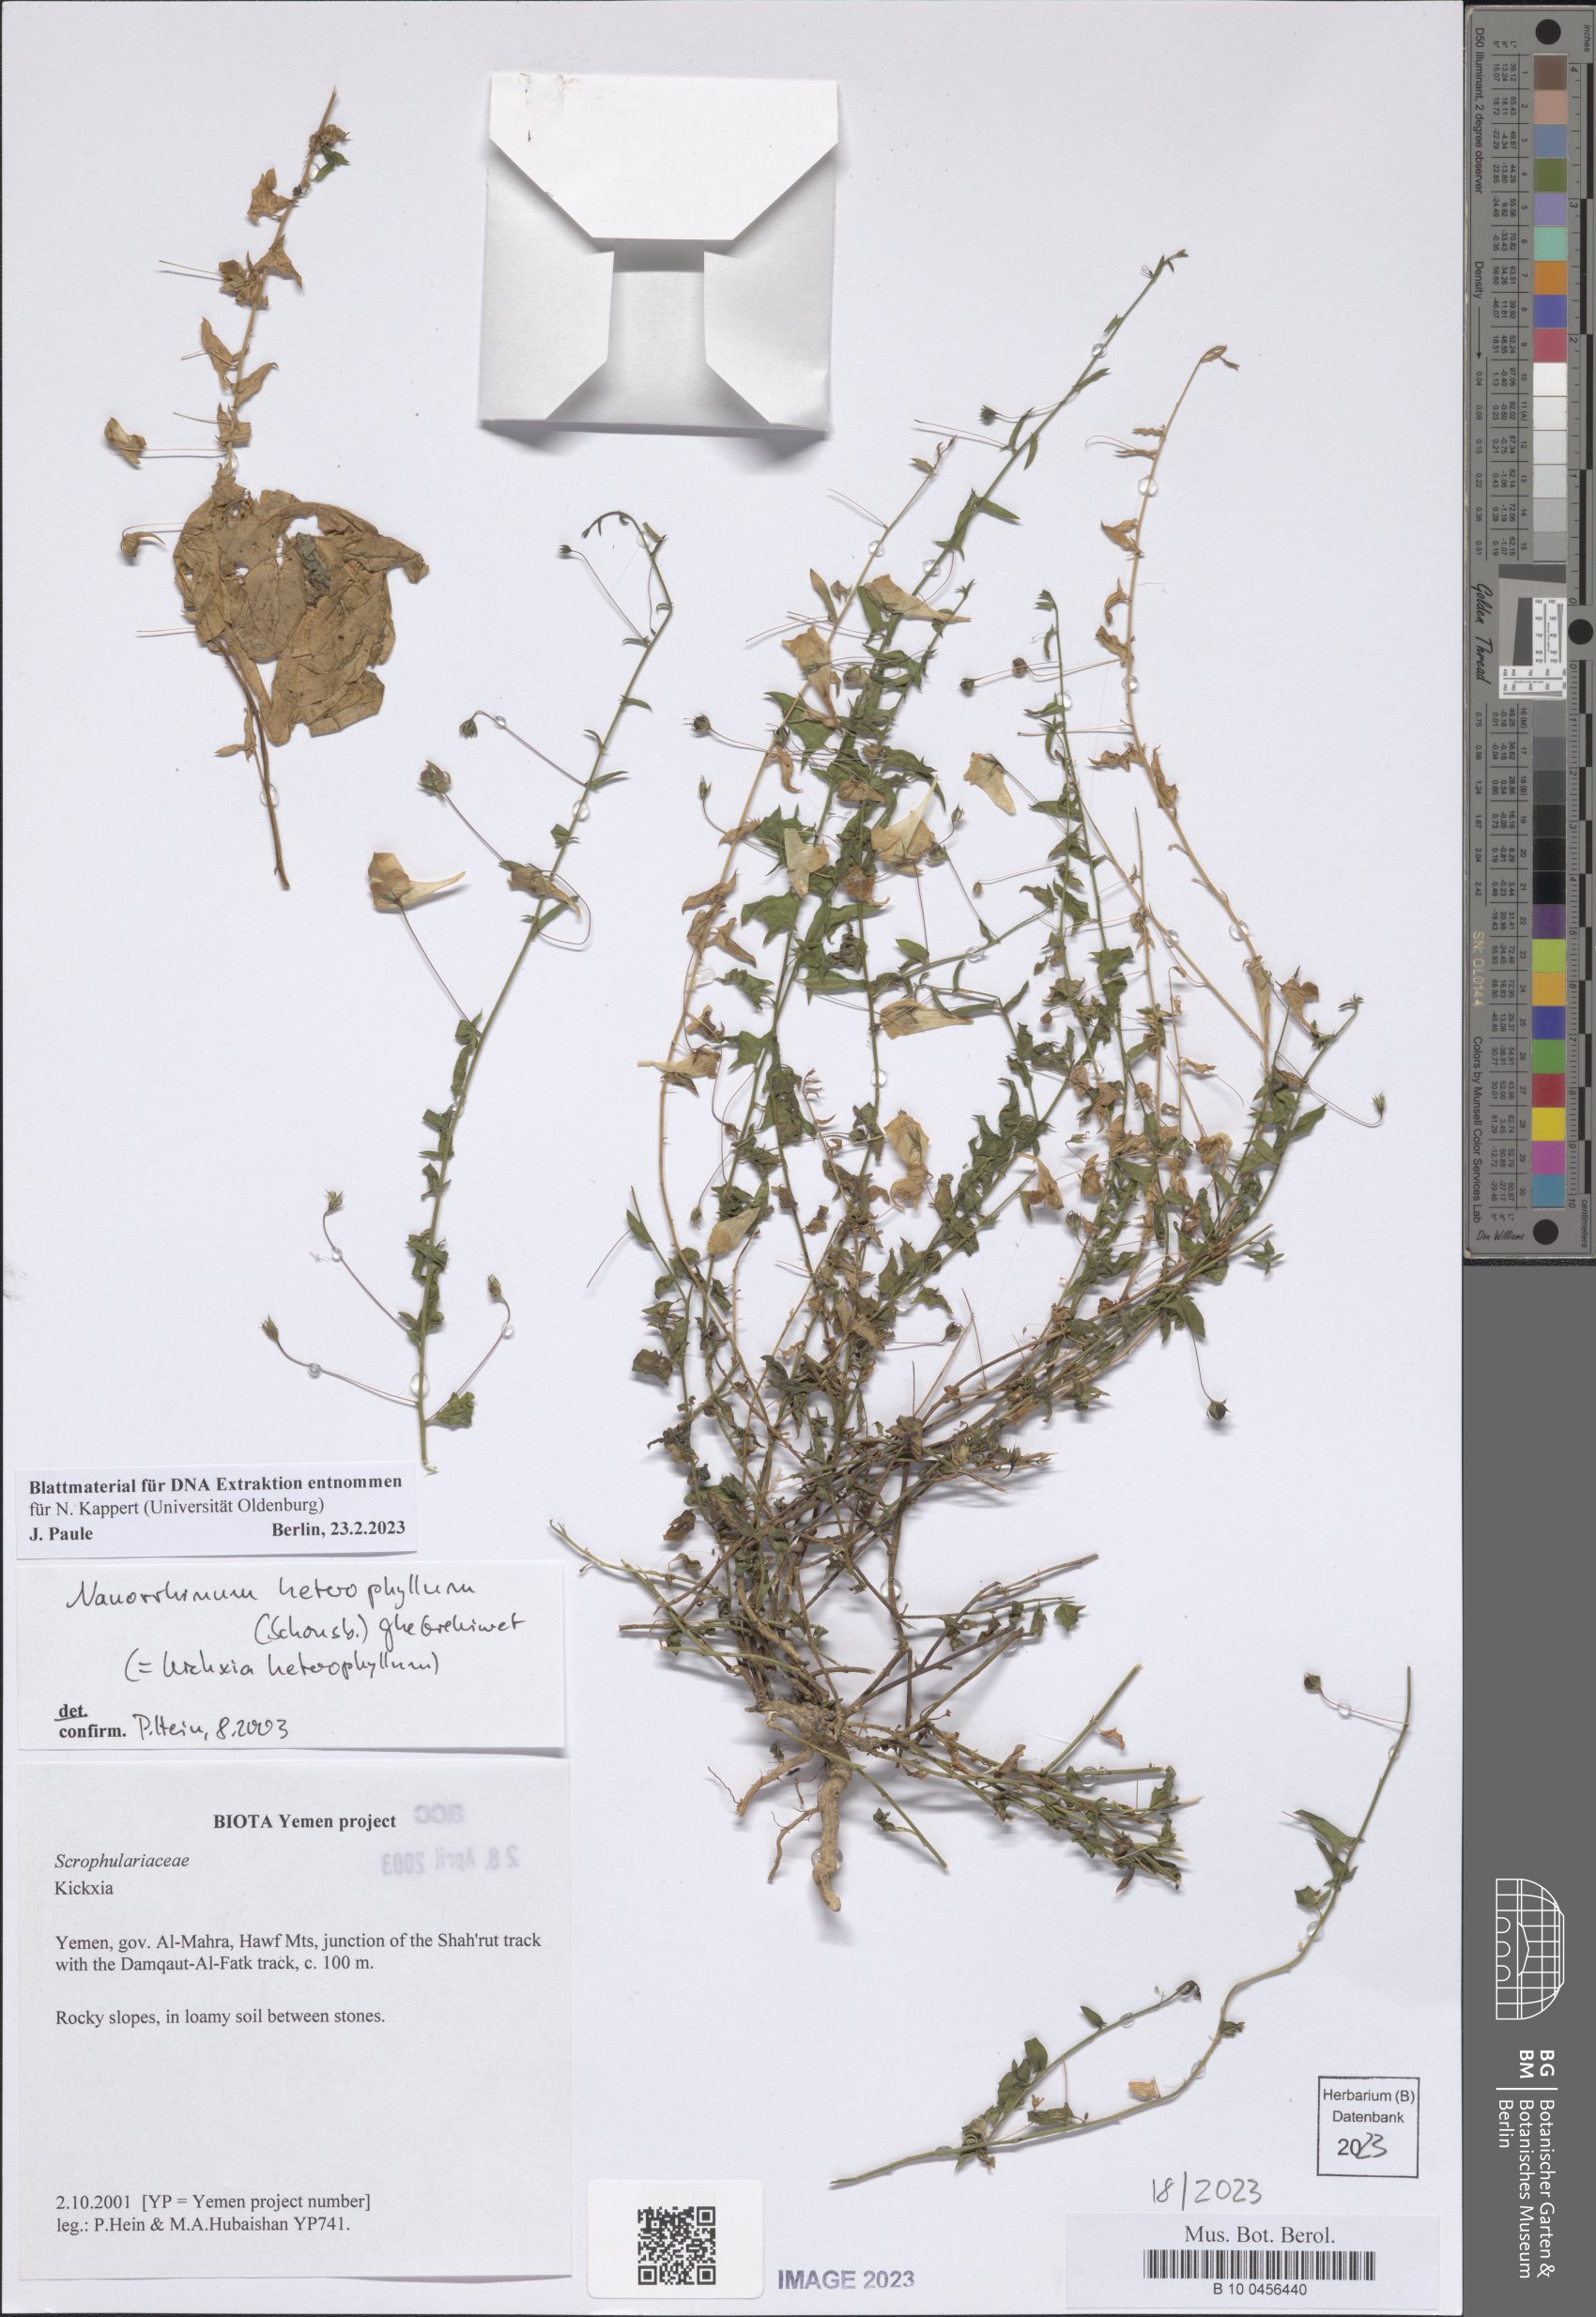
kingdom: Plantae
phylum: Tracheophyta
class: Magnoliopsida
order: Lamiales
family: Plantaginaceae
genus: Nanorrhinum
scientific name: Nanorrhinum heterophyllum
